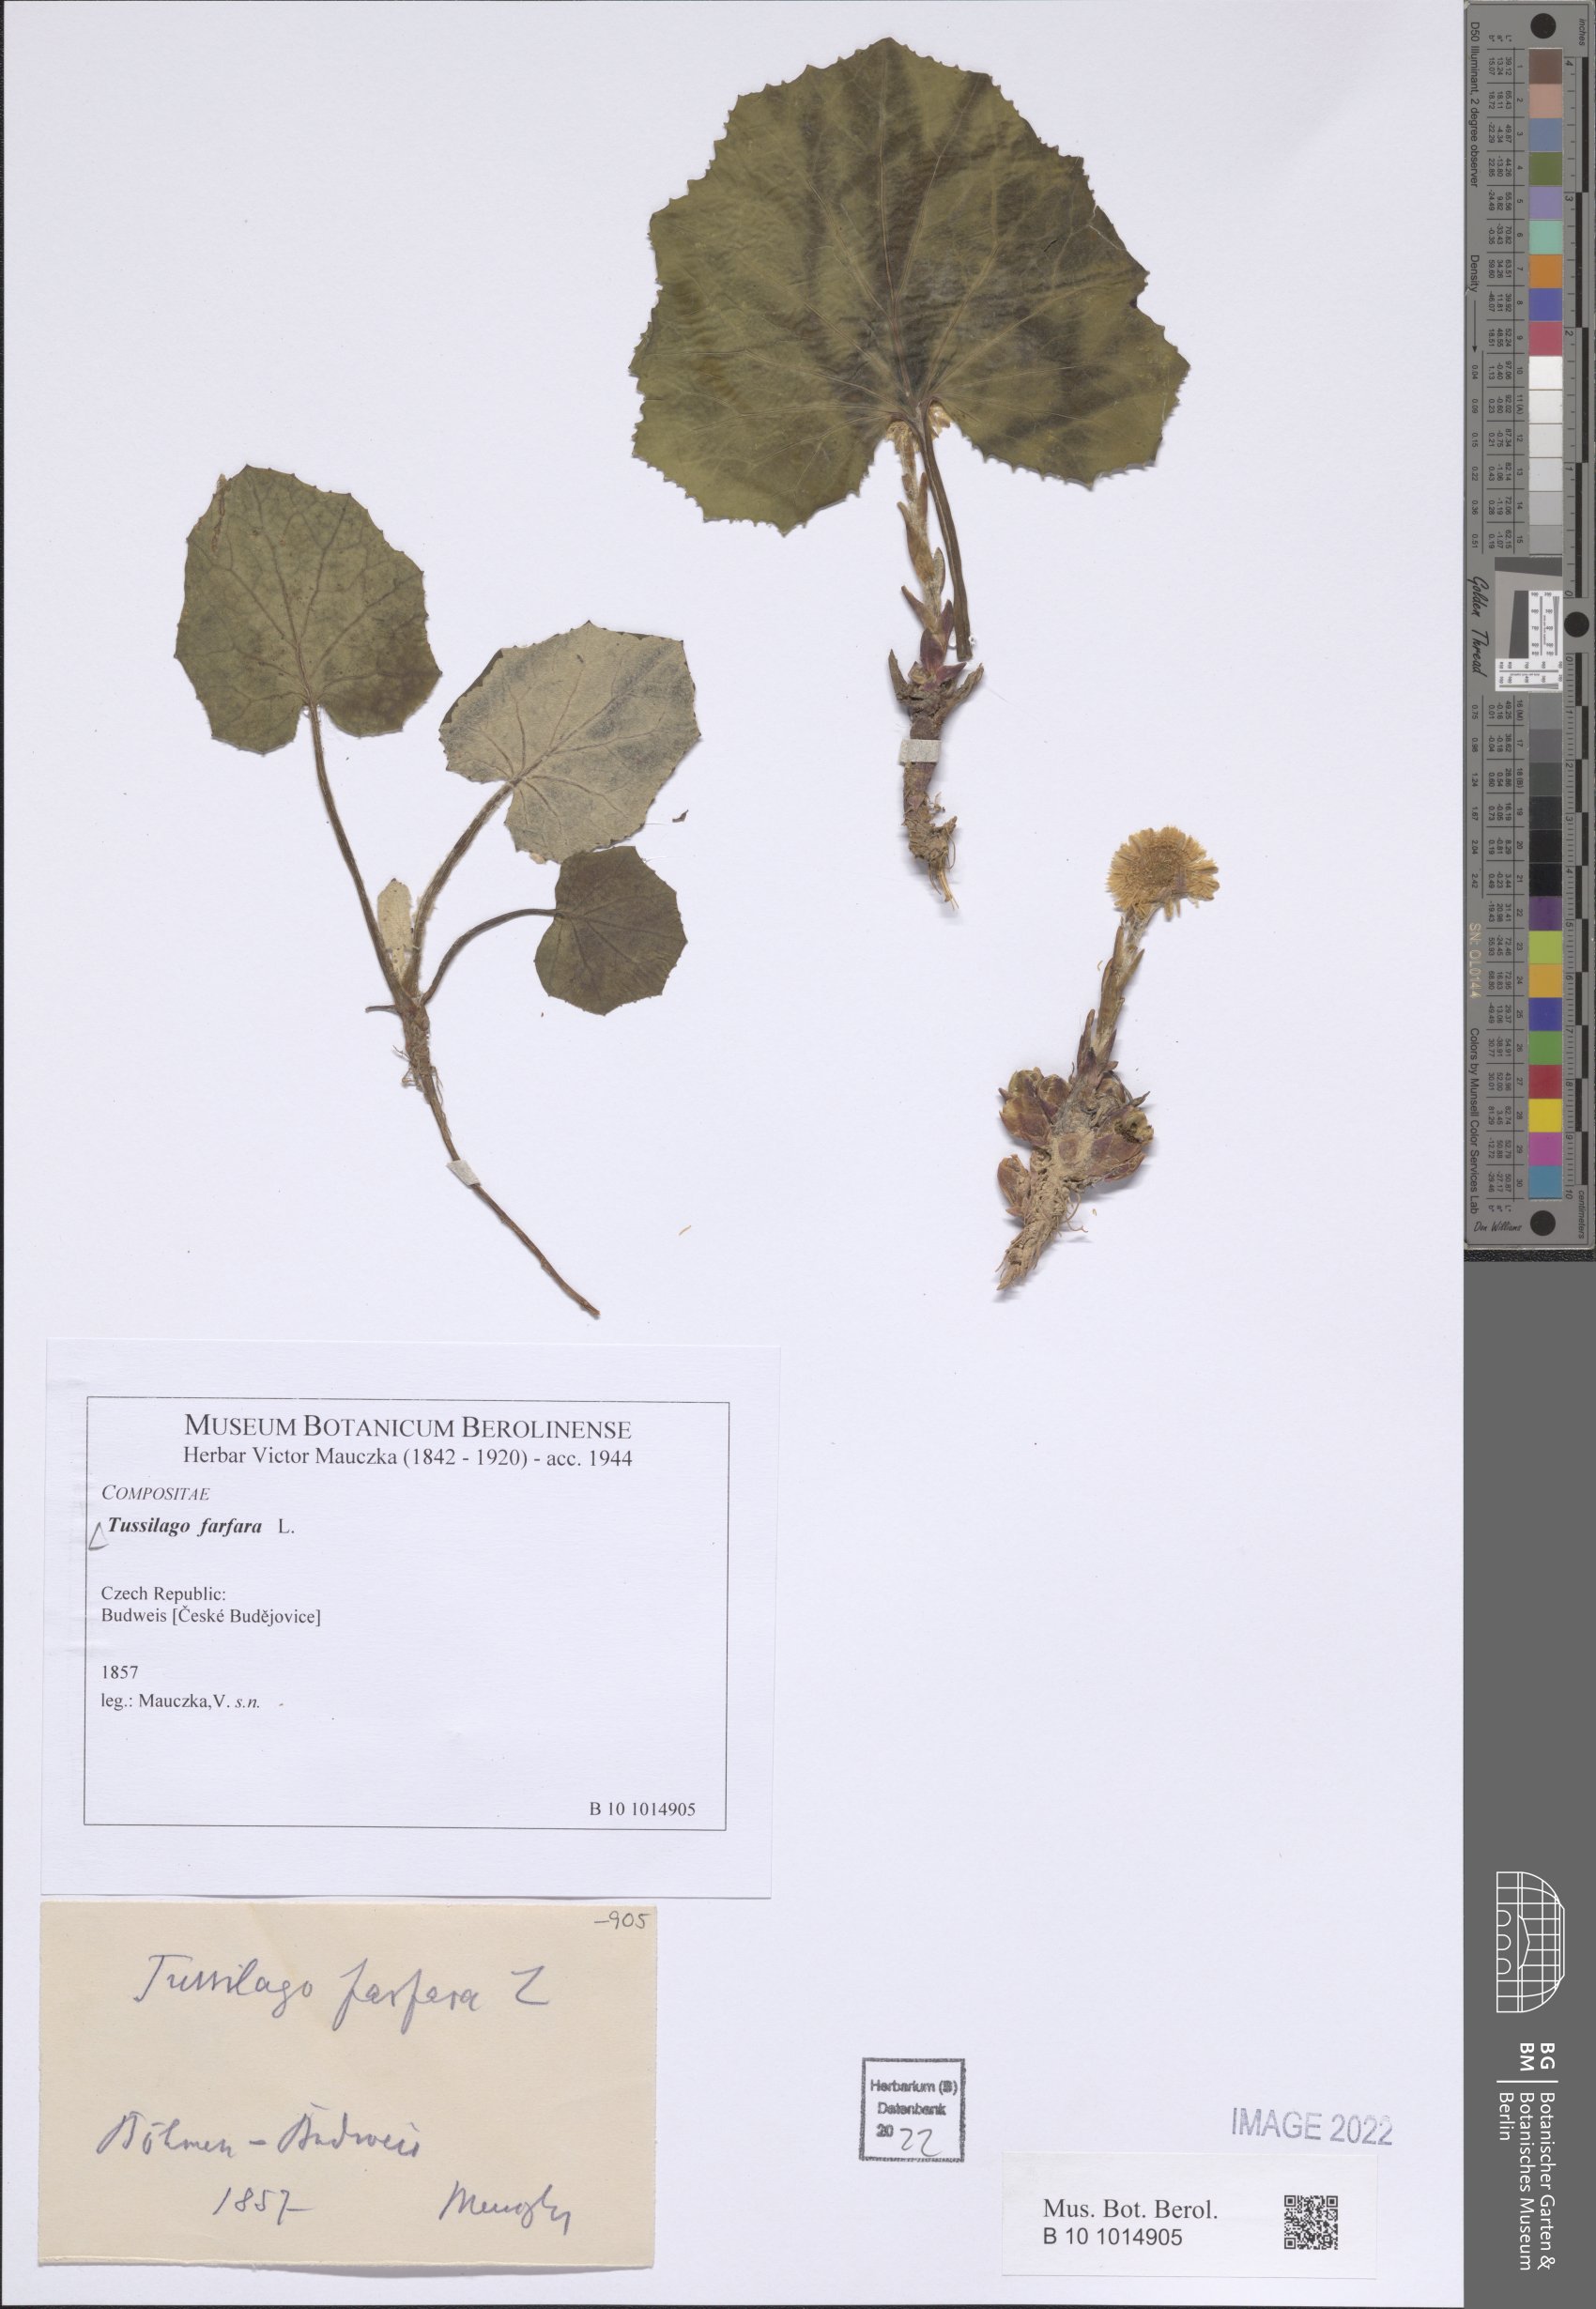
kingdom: Plantae
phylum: Tracheophyta
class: Magnoliopsida
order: Asterales
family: Asteraceae
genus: Tussilago
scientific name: Tussilago farfara
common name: Coltsfoot
